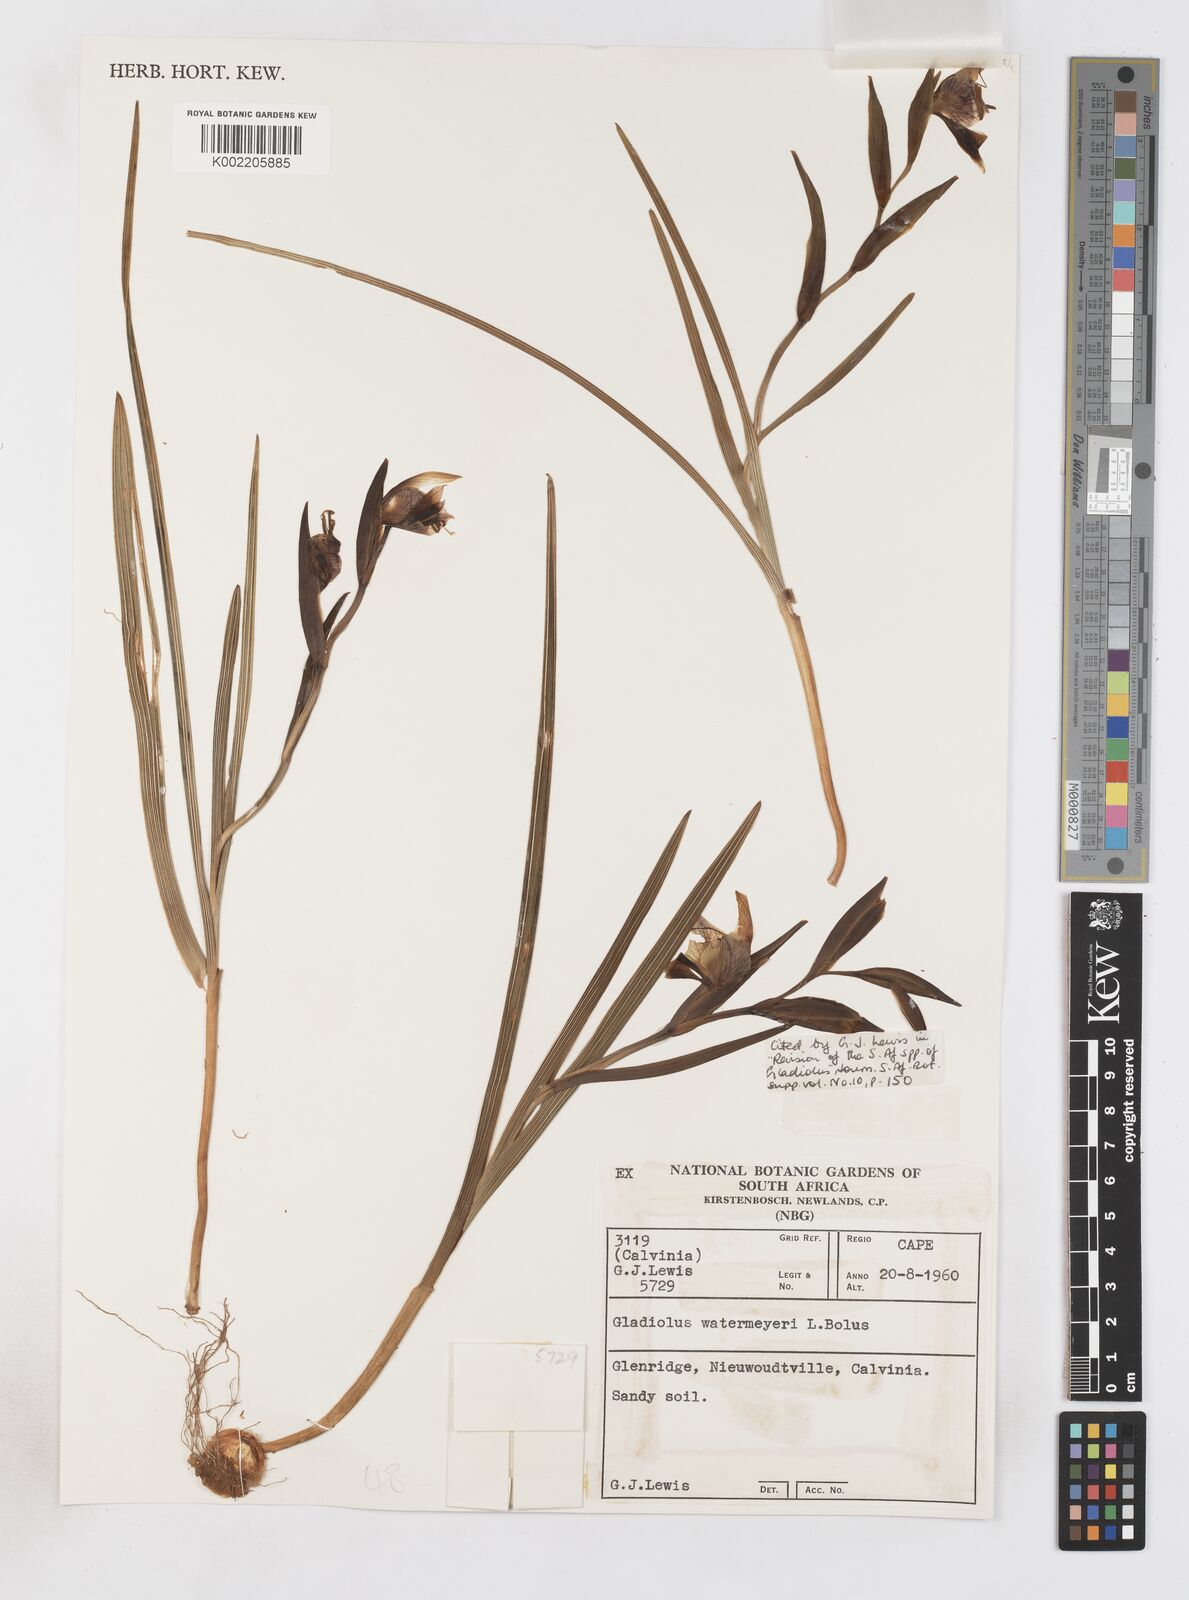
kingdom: Plantae
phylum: Tracheophyta
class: Liliopsida
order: Asparagales
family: Iridaceae
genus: Gladiolus
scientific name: Gladiolus watermeyeri
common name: Sweet kalkoentjie
